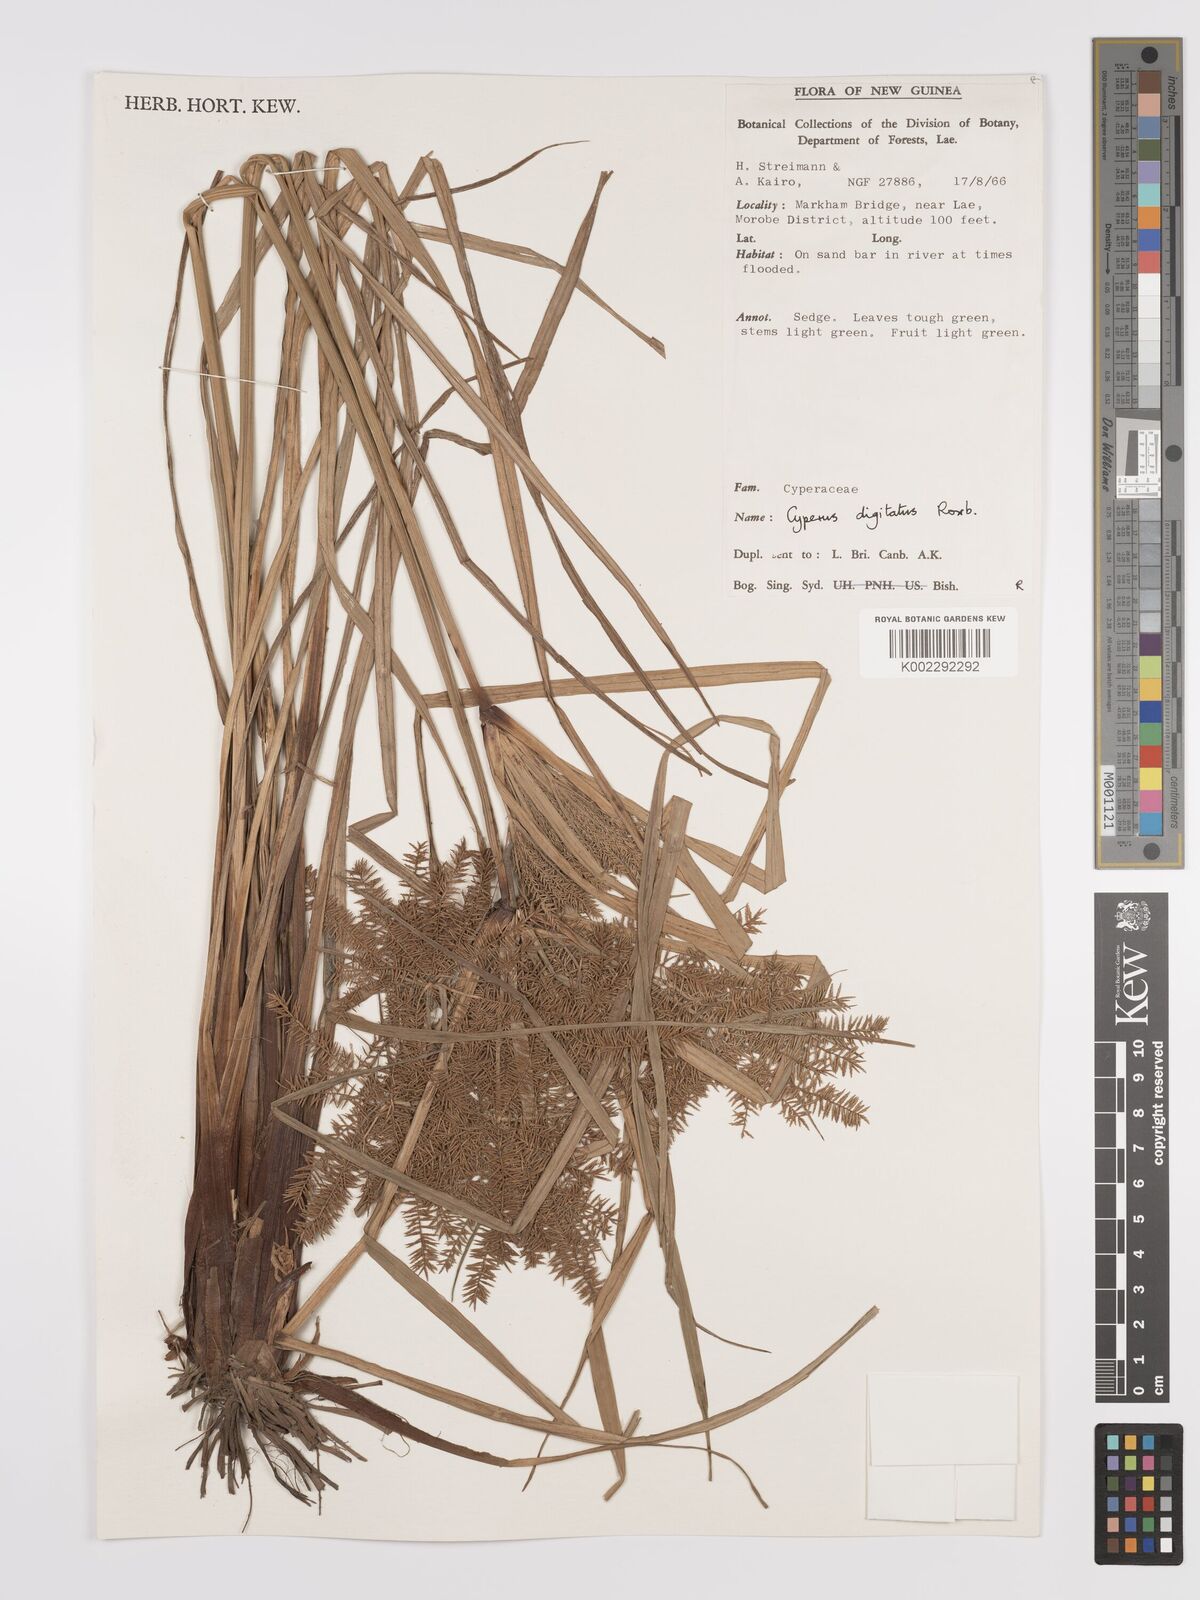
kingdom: Plantae
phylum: Tracheophyta
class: Liliopsida
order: Poales
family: Cyperaceae
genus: Cyperus
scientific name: Cyperus digitatus
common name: Finger flatsedge
